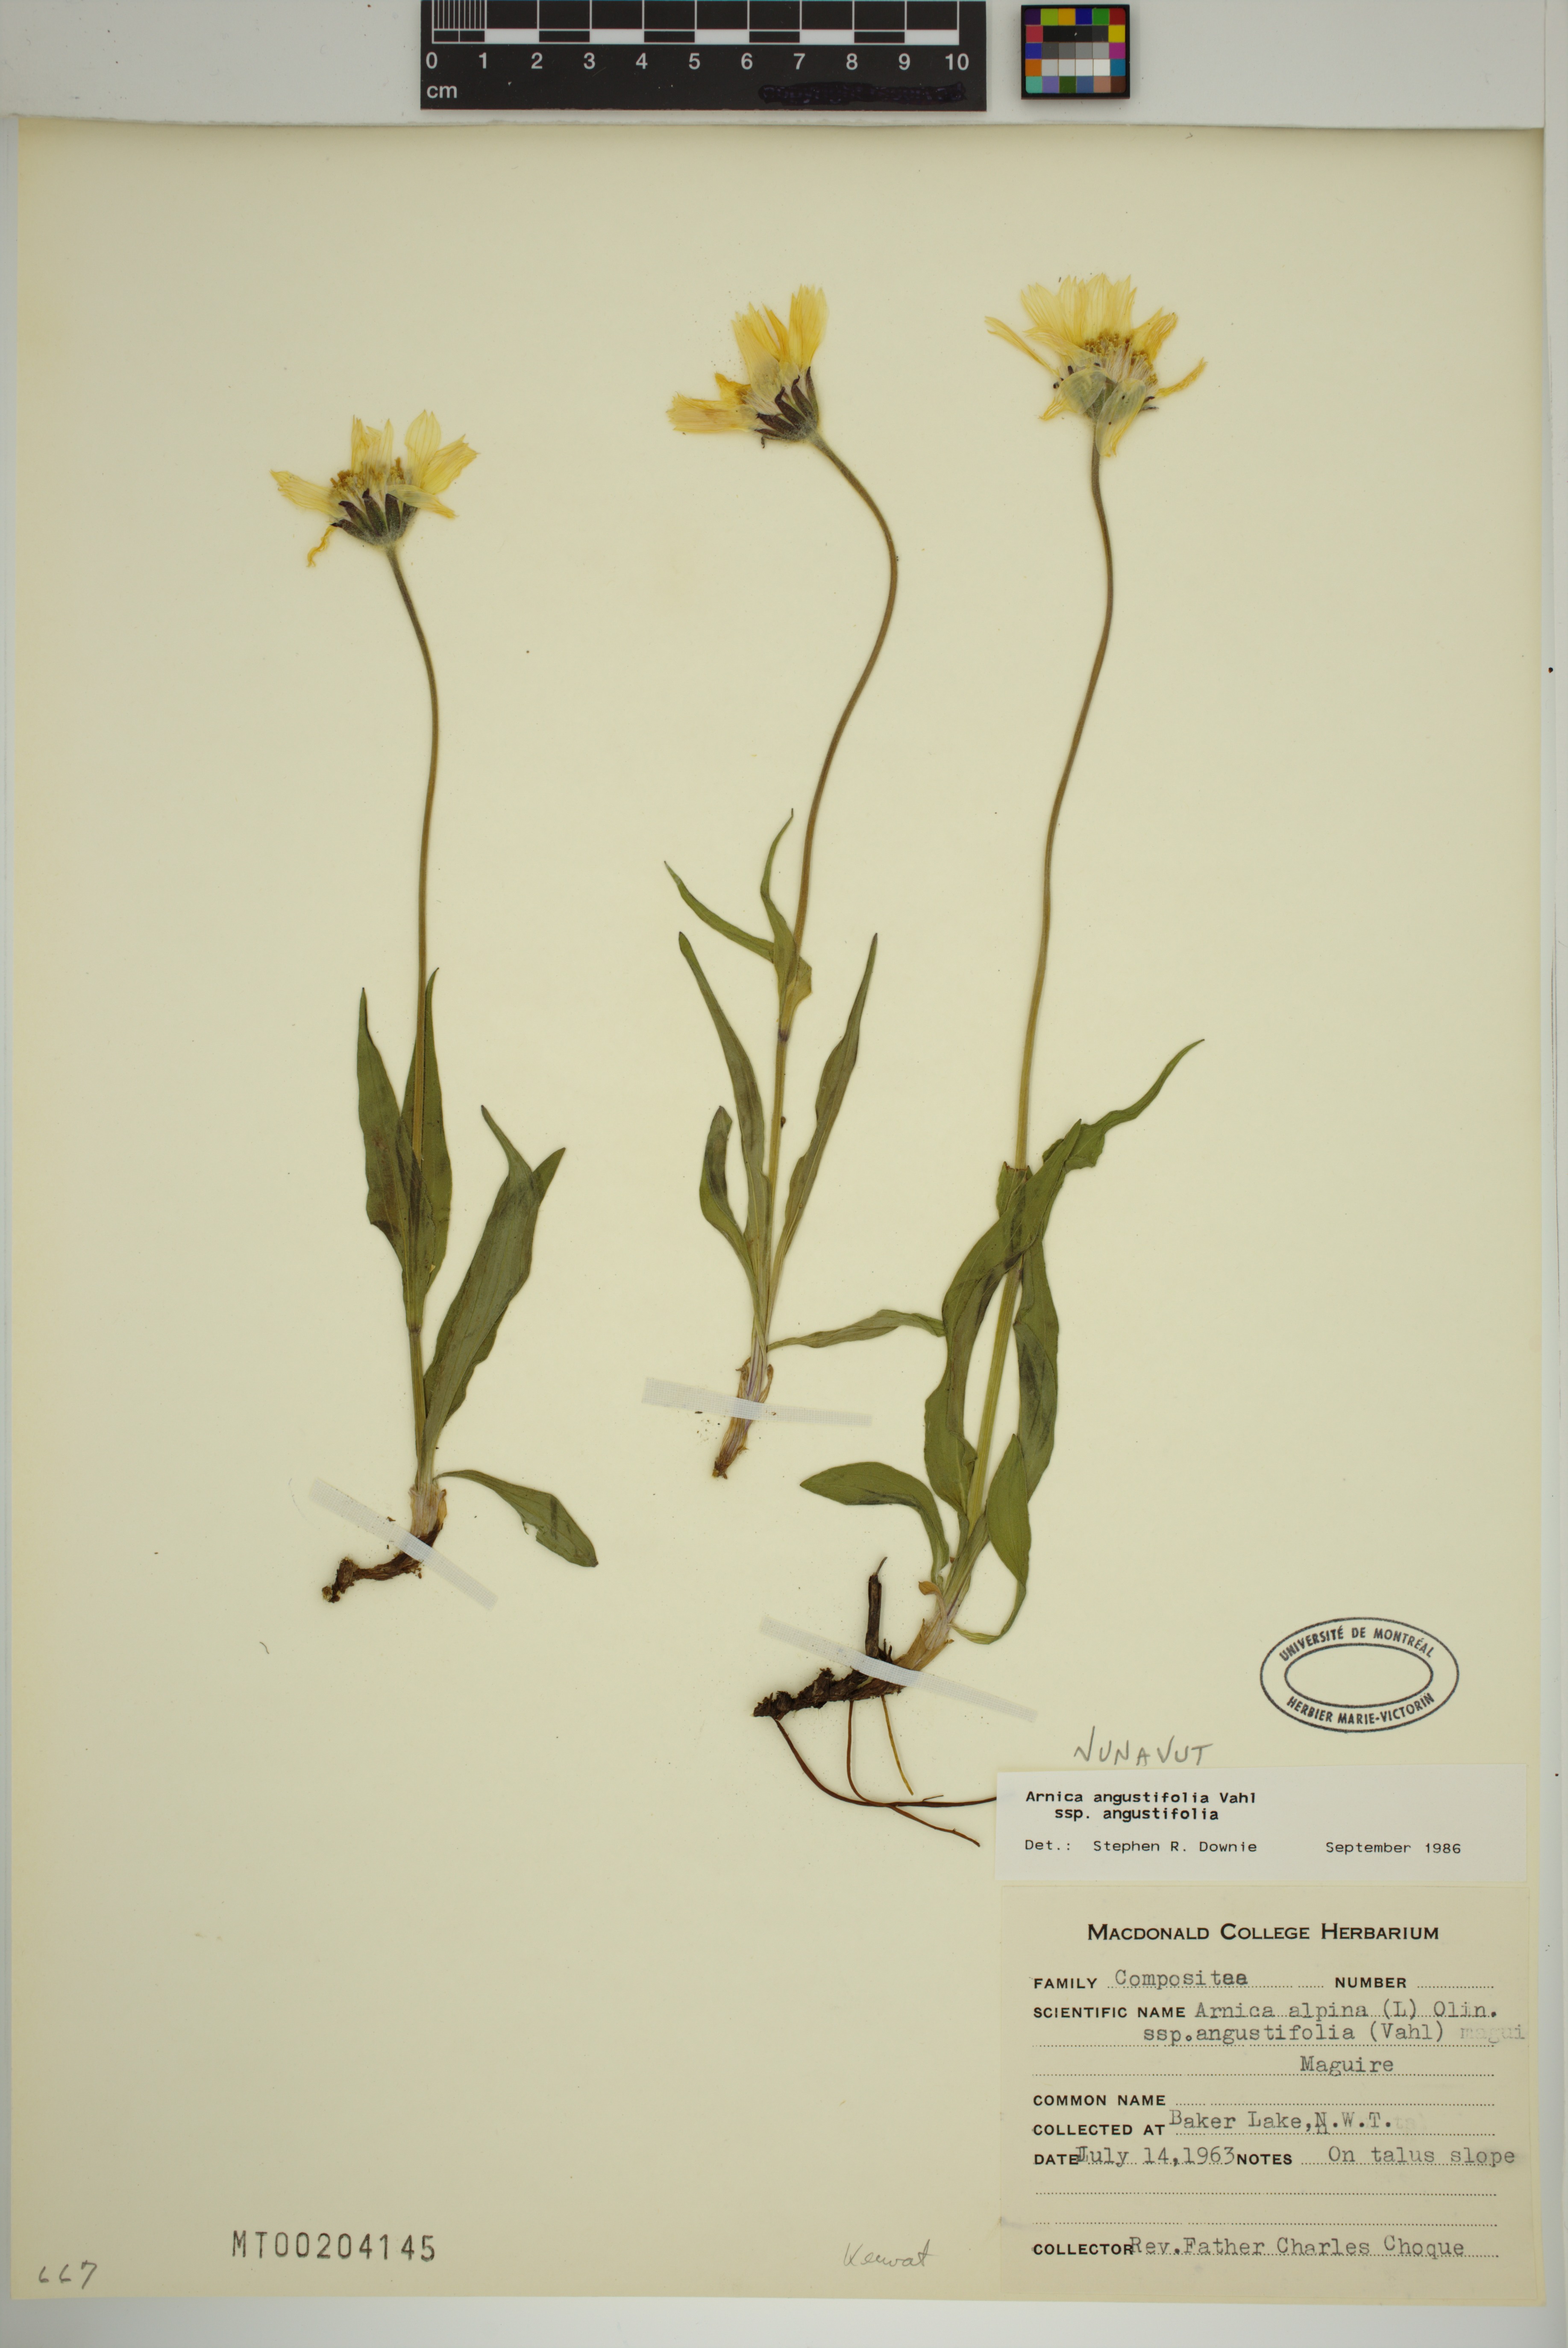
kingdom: Plantae
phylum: Tracheophyta
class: Magnoliopsida
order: Asterales
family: Asteraceae
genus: Arnica
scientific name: Arnica angustifolia
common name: Arctic arnica
